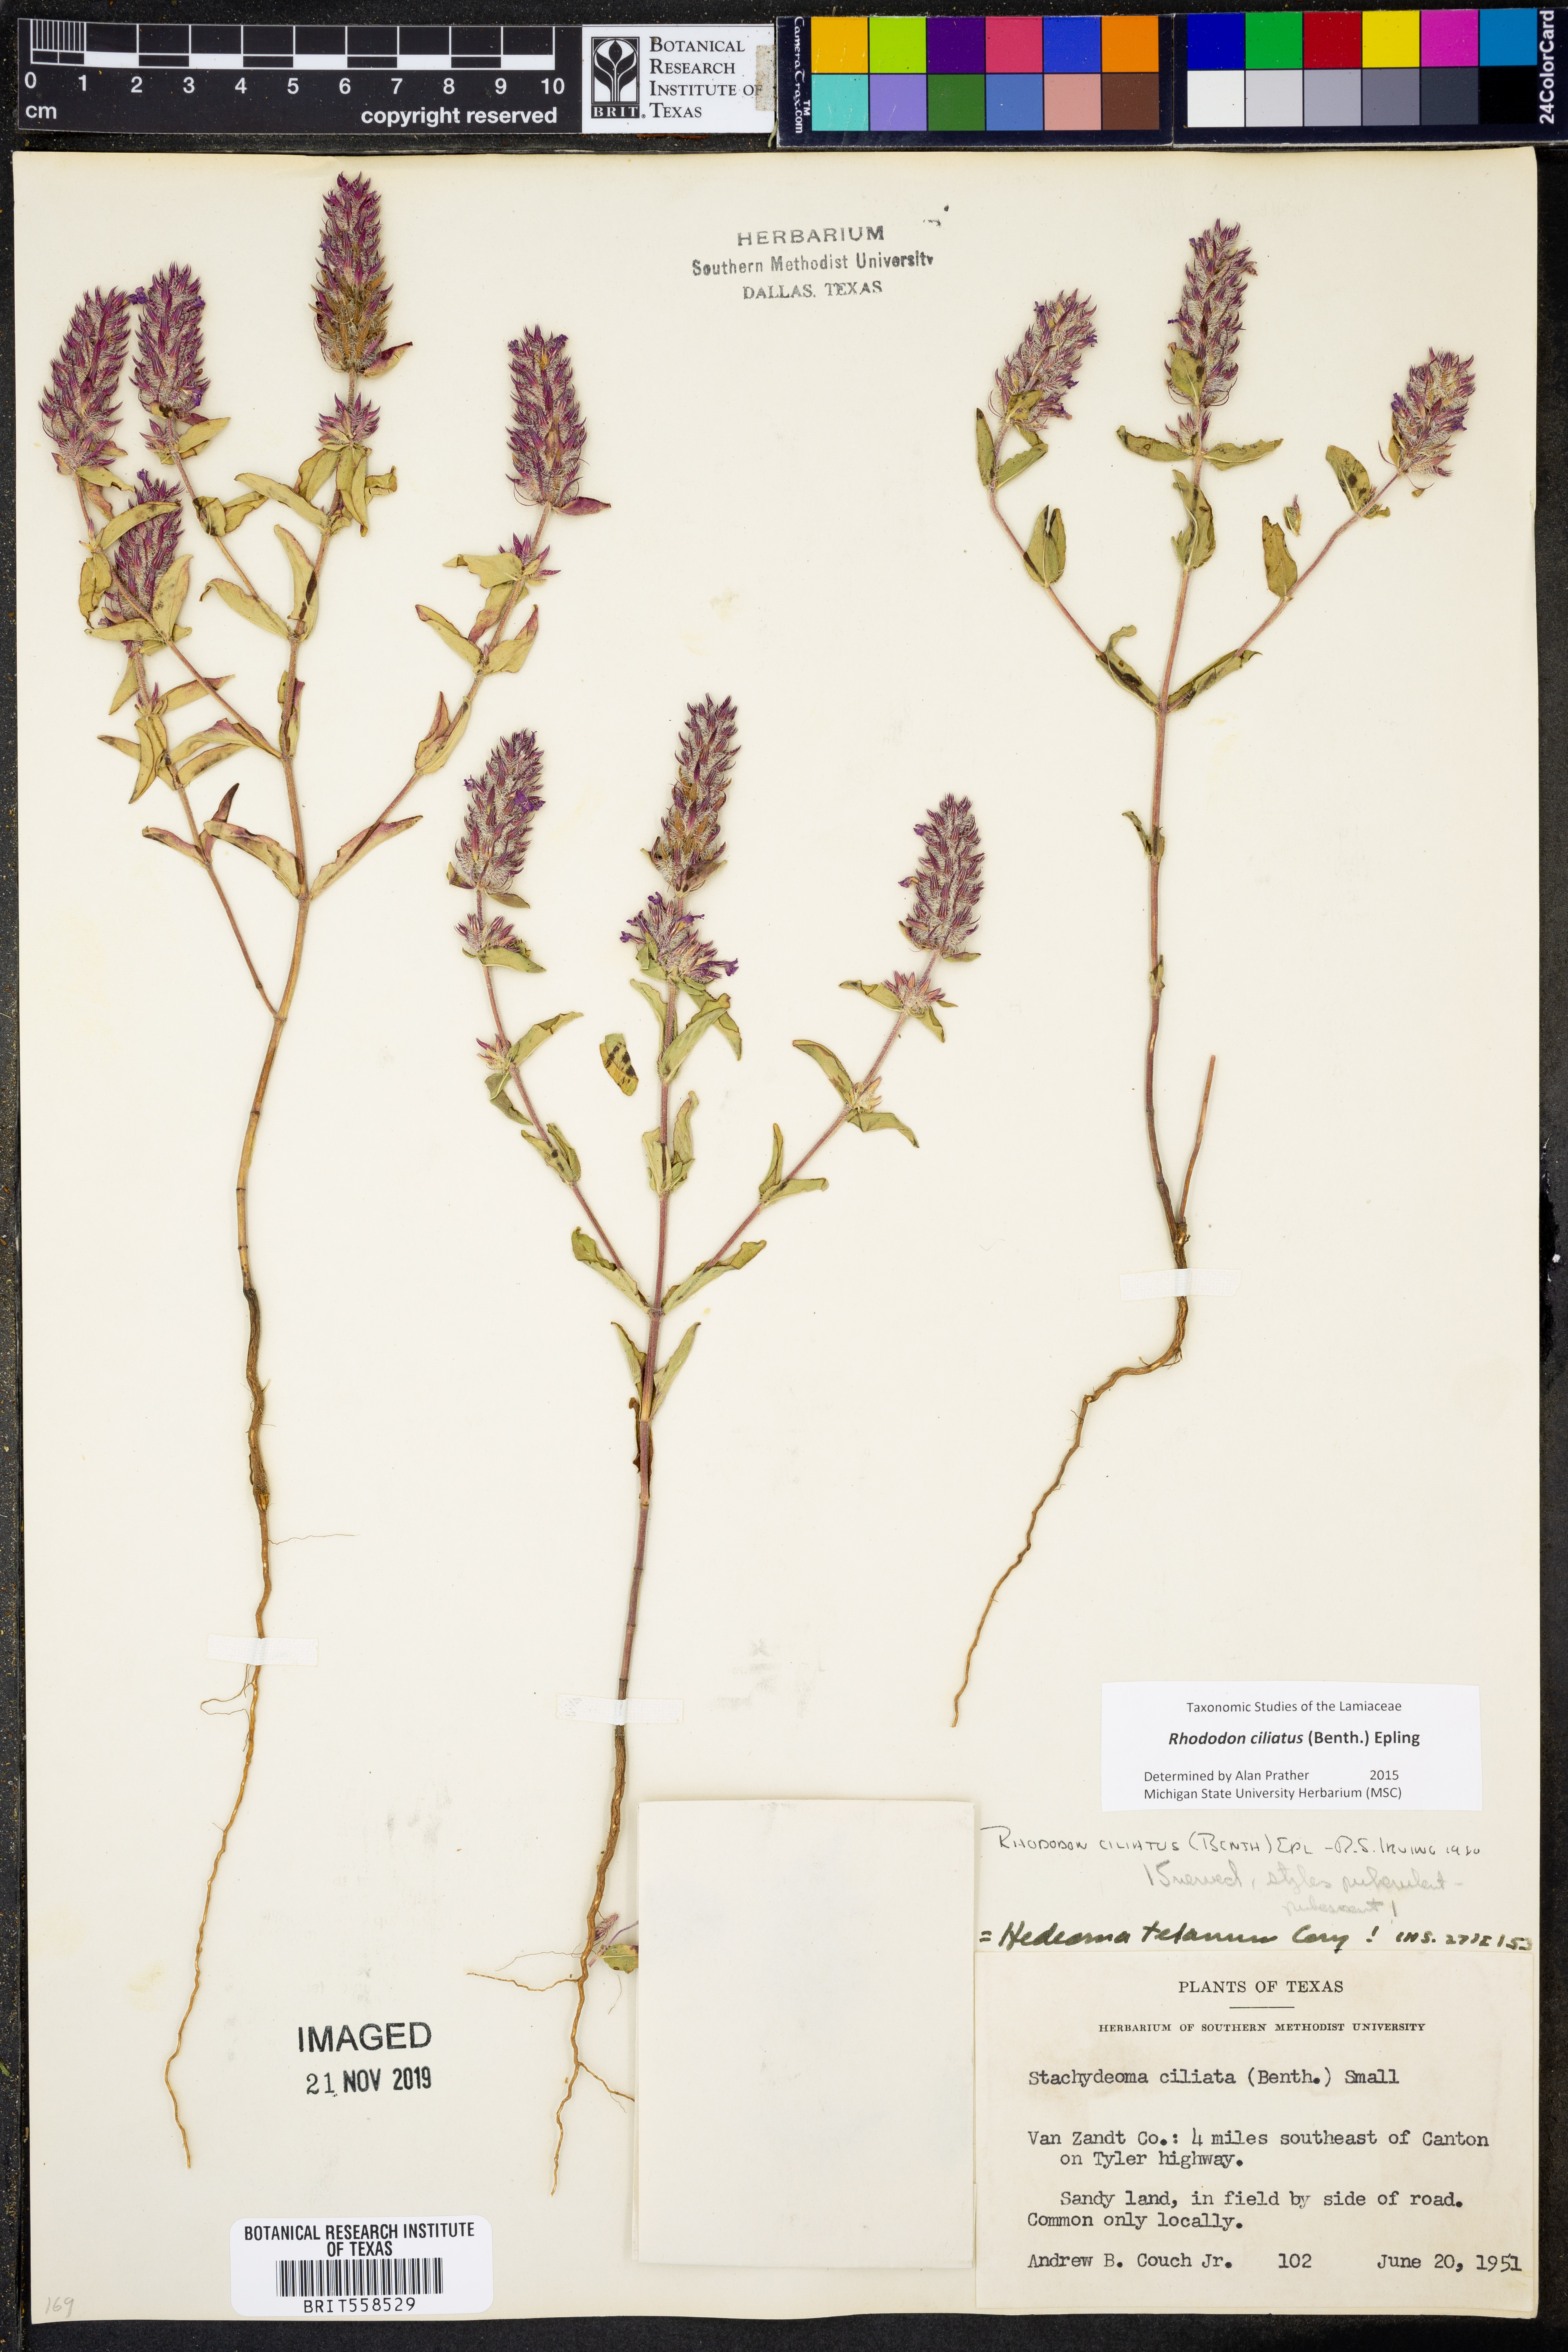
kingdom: Plantae
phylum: Tracheophyta
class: Magnoliopsida
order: Lamiales
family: Lamiaceae
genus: Rhododon
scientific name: Rhododon ciliatus
